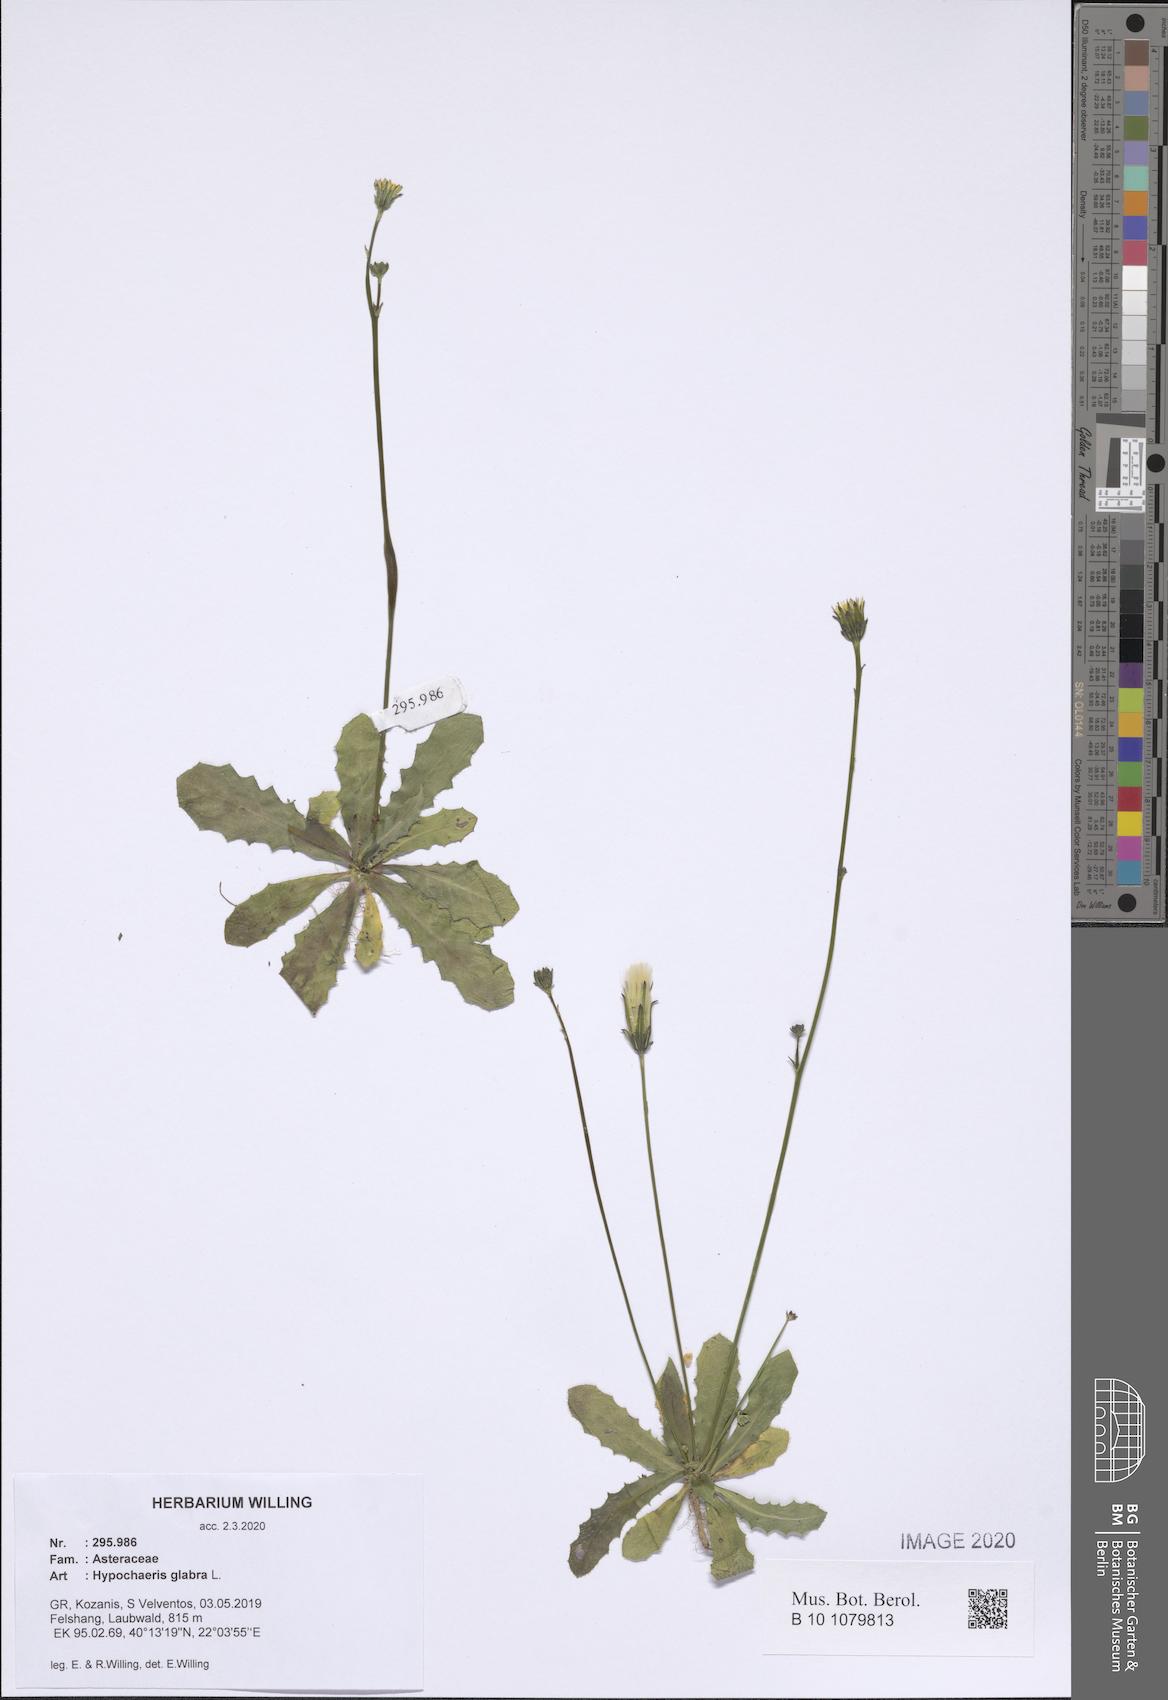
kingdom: Plantae
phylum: Tracheophyta
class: Magnoliopsida
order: Asterales
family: Asteraceae
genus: Hypochaeris
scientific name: Hypochaeris glabra
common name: Smooth catsear
